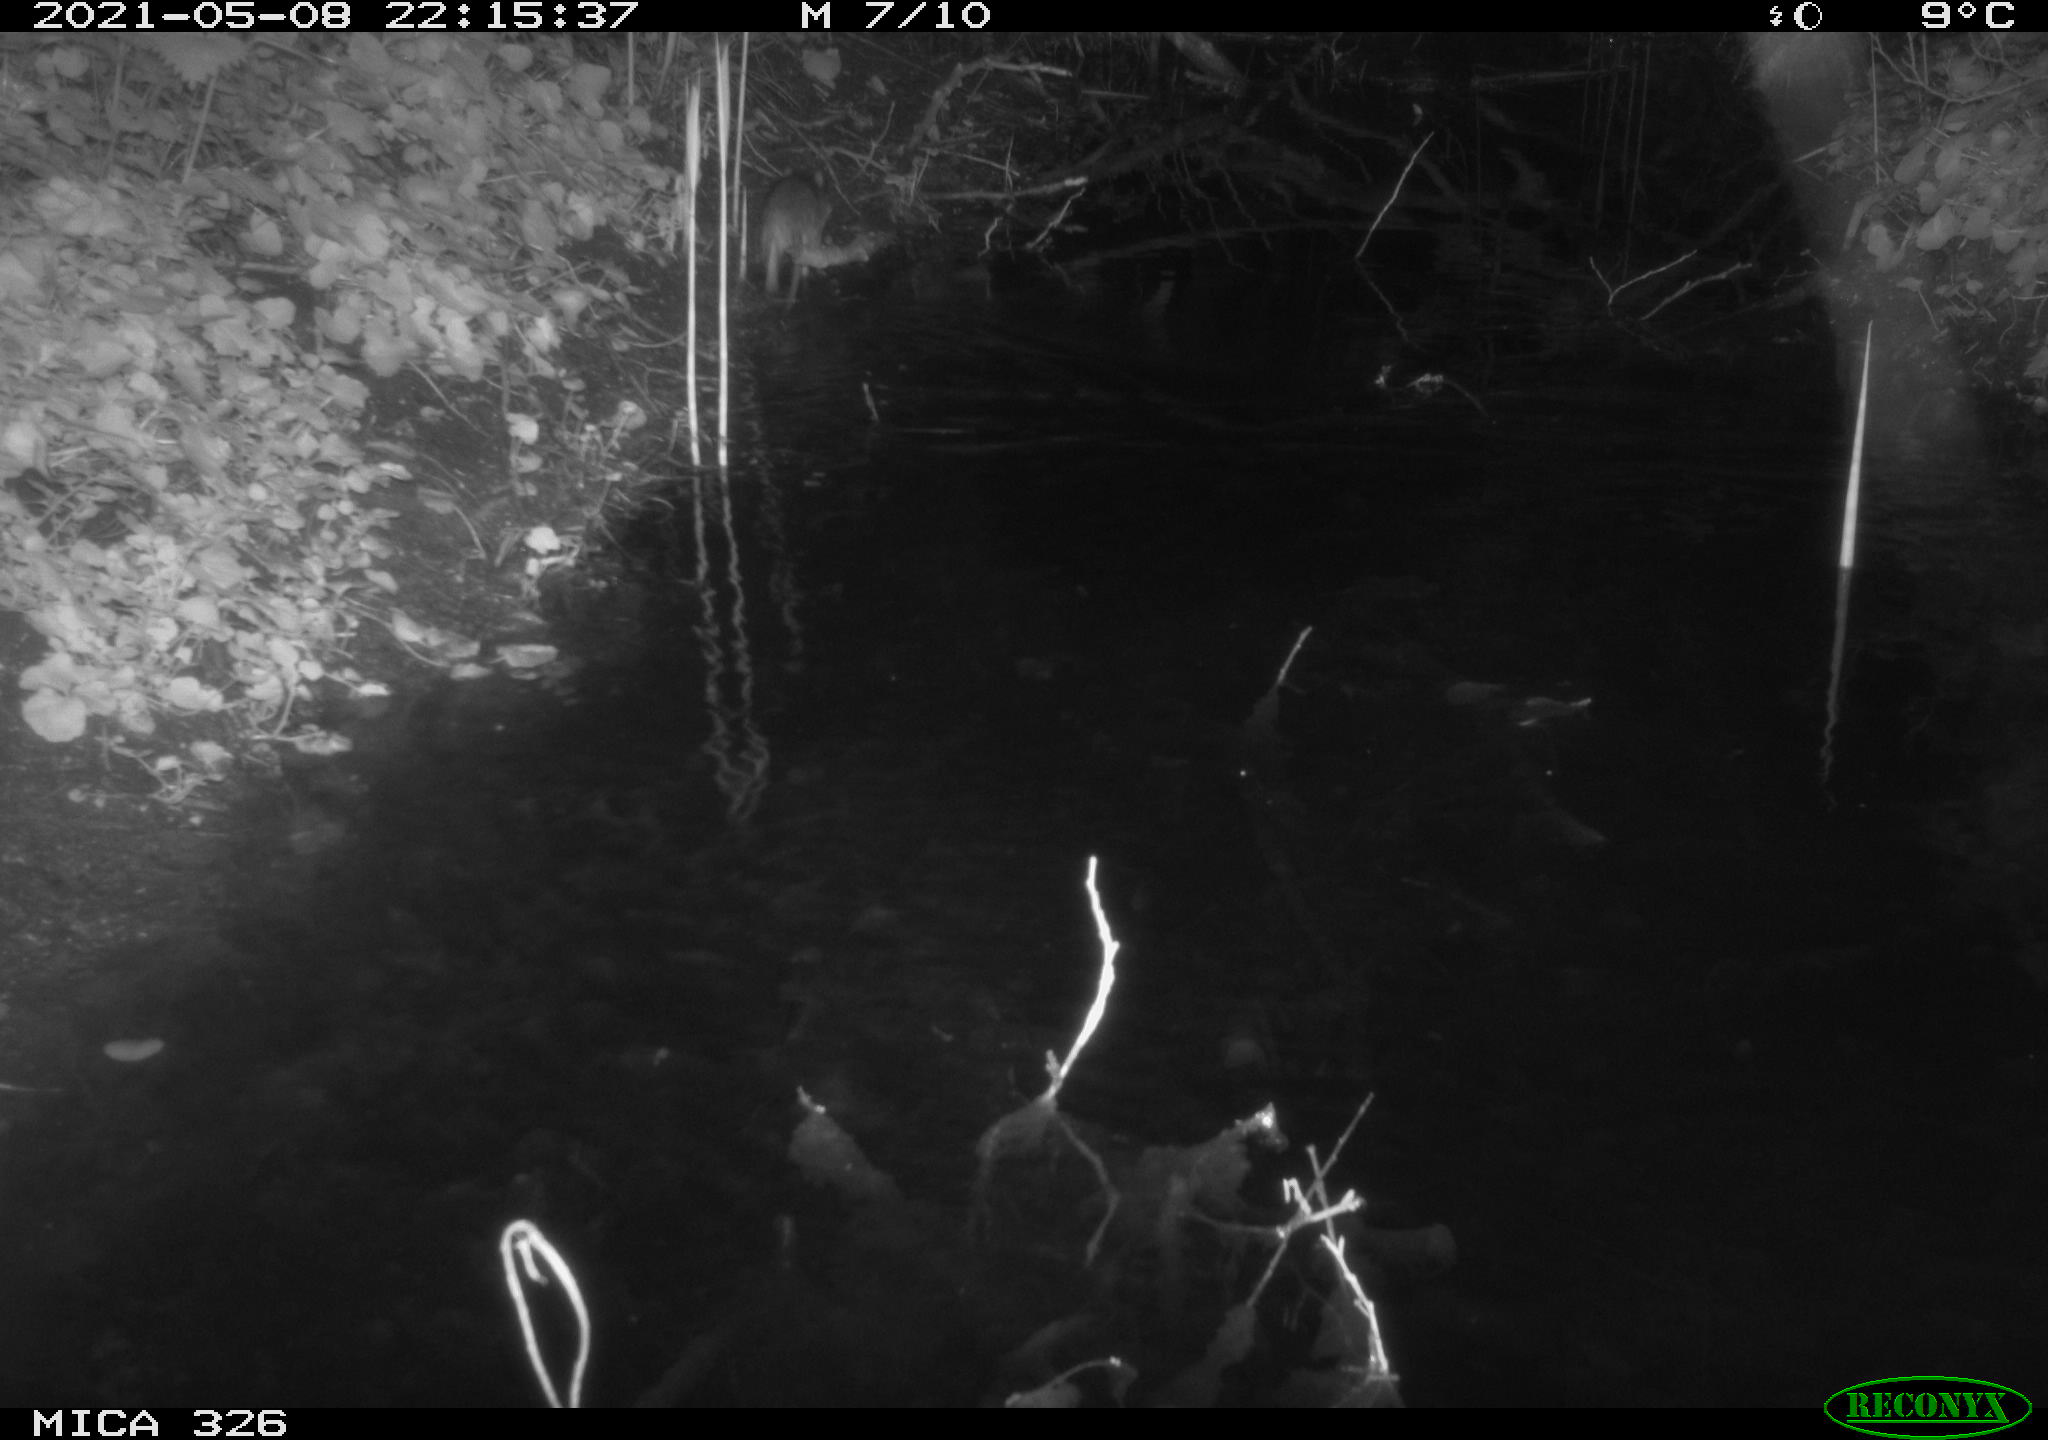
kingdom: Animalia
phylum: Chordata
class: Mammalia
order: Rodentia
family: Muridae
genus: Rattus
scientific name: Rattus norvegicus
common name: Brown rat
